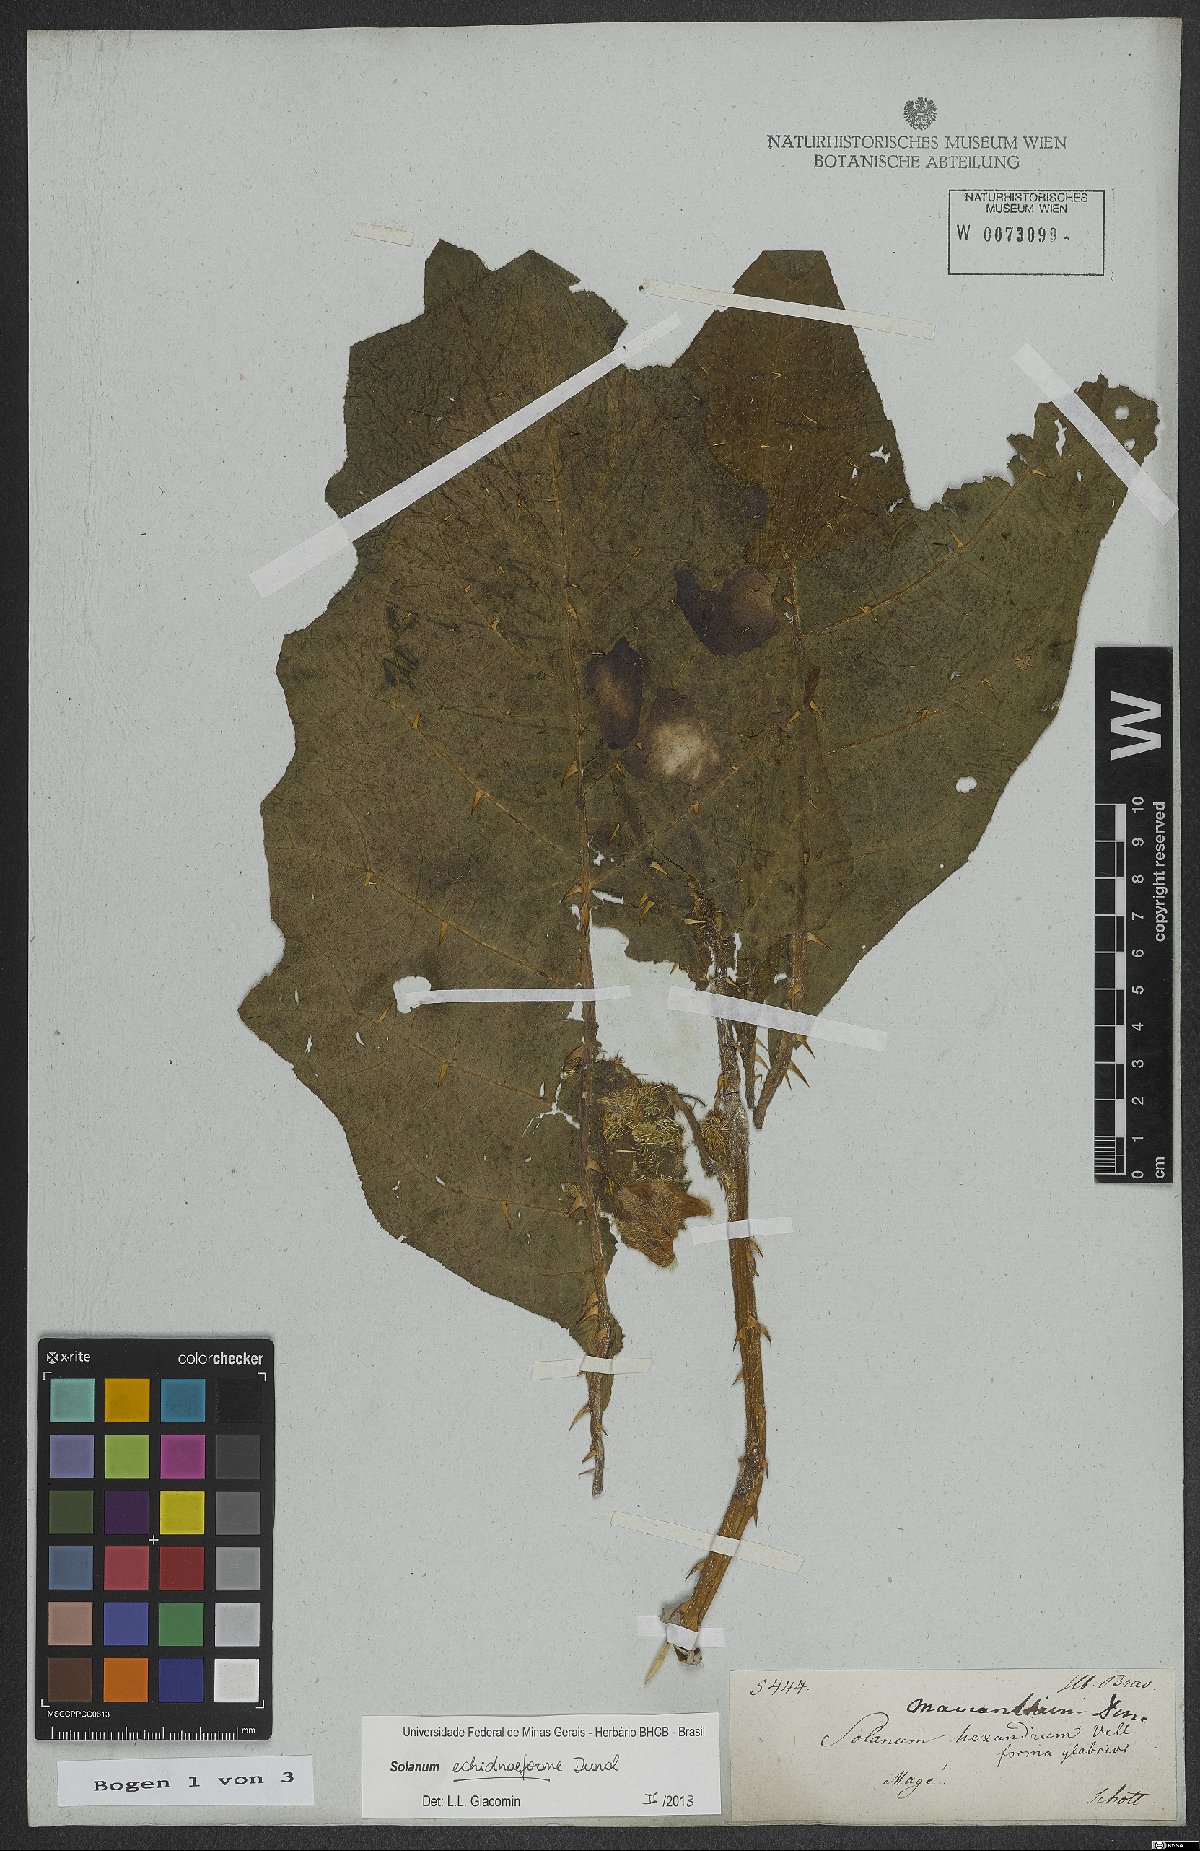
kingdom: Plantae
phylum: Tracheophyta
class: Magnoliopsida
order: Solanales
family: Solanaceae
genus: Solanum
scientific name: Solanum hexandrum
